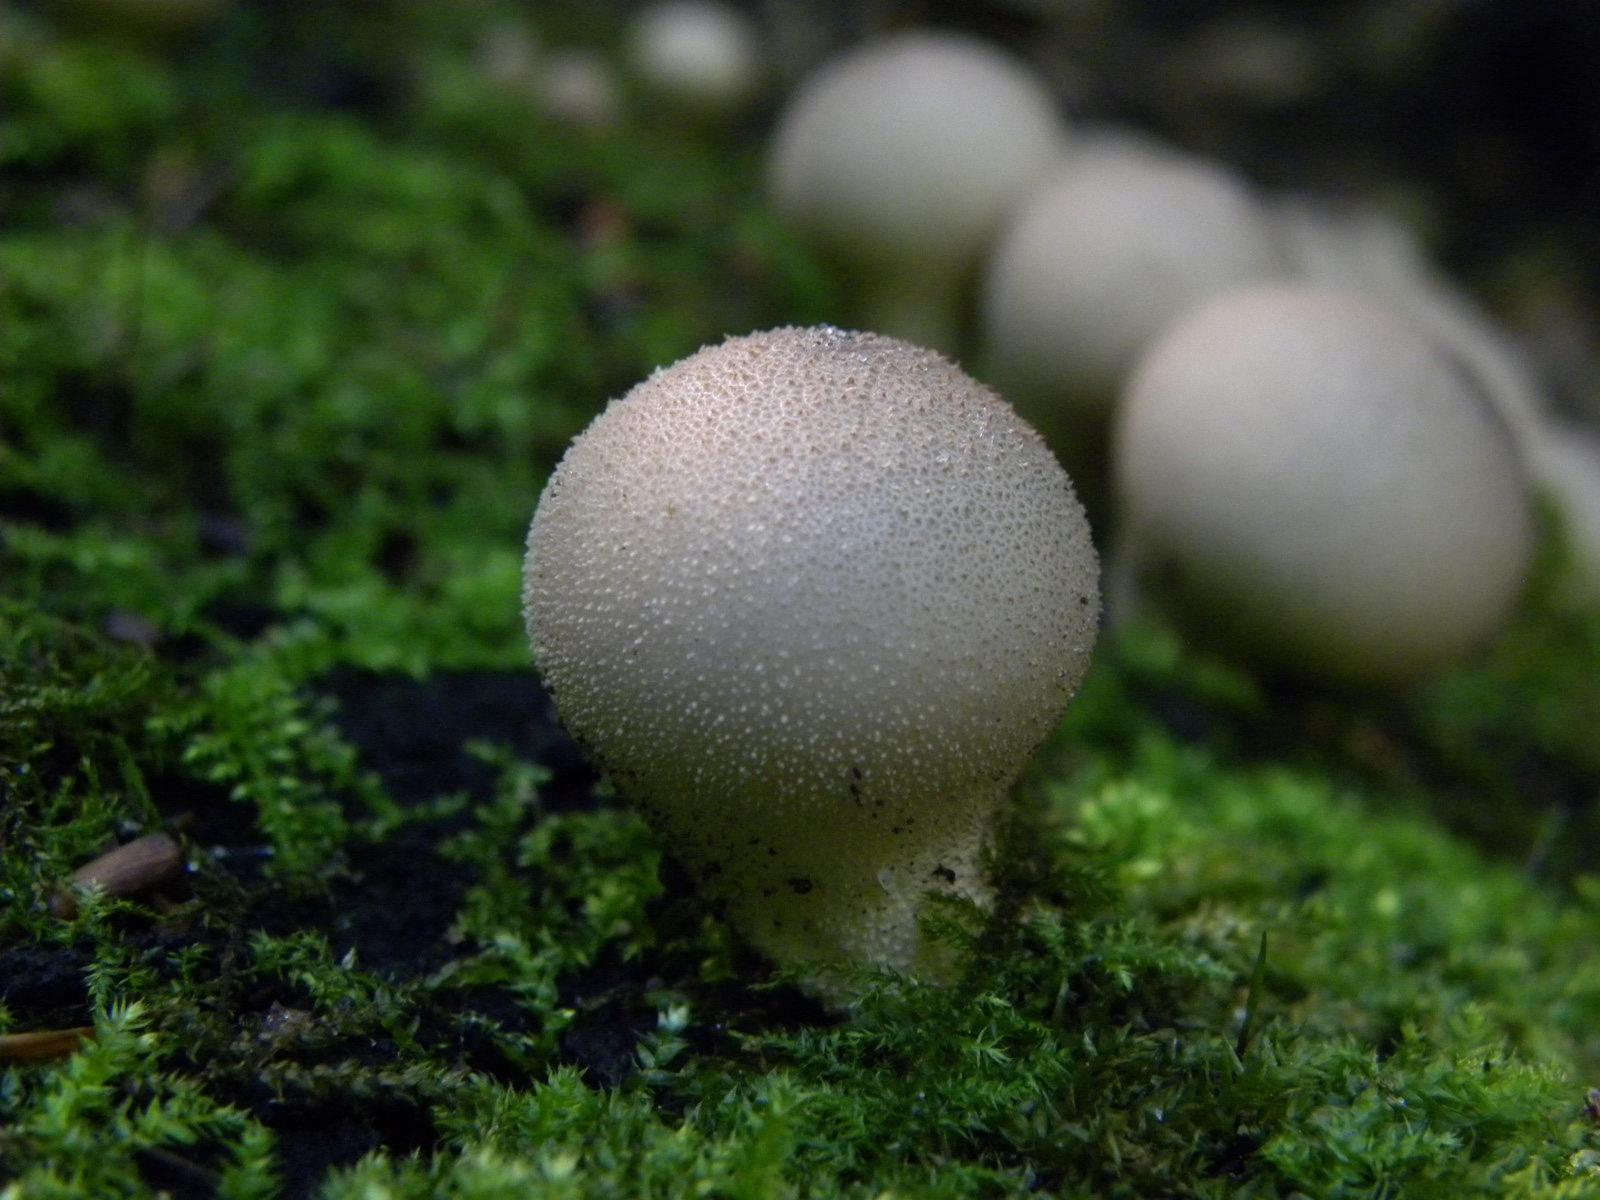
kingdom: Fungi
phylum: Basidiomycota
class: Agaricomycetes
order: Agaricales
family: Lycoperdaceae
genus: Apioperdon
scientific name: Apioperdon pyriforme
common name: pære-støvbold
